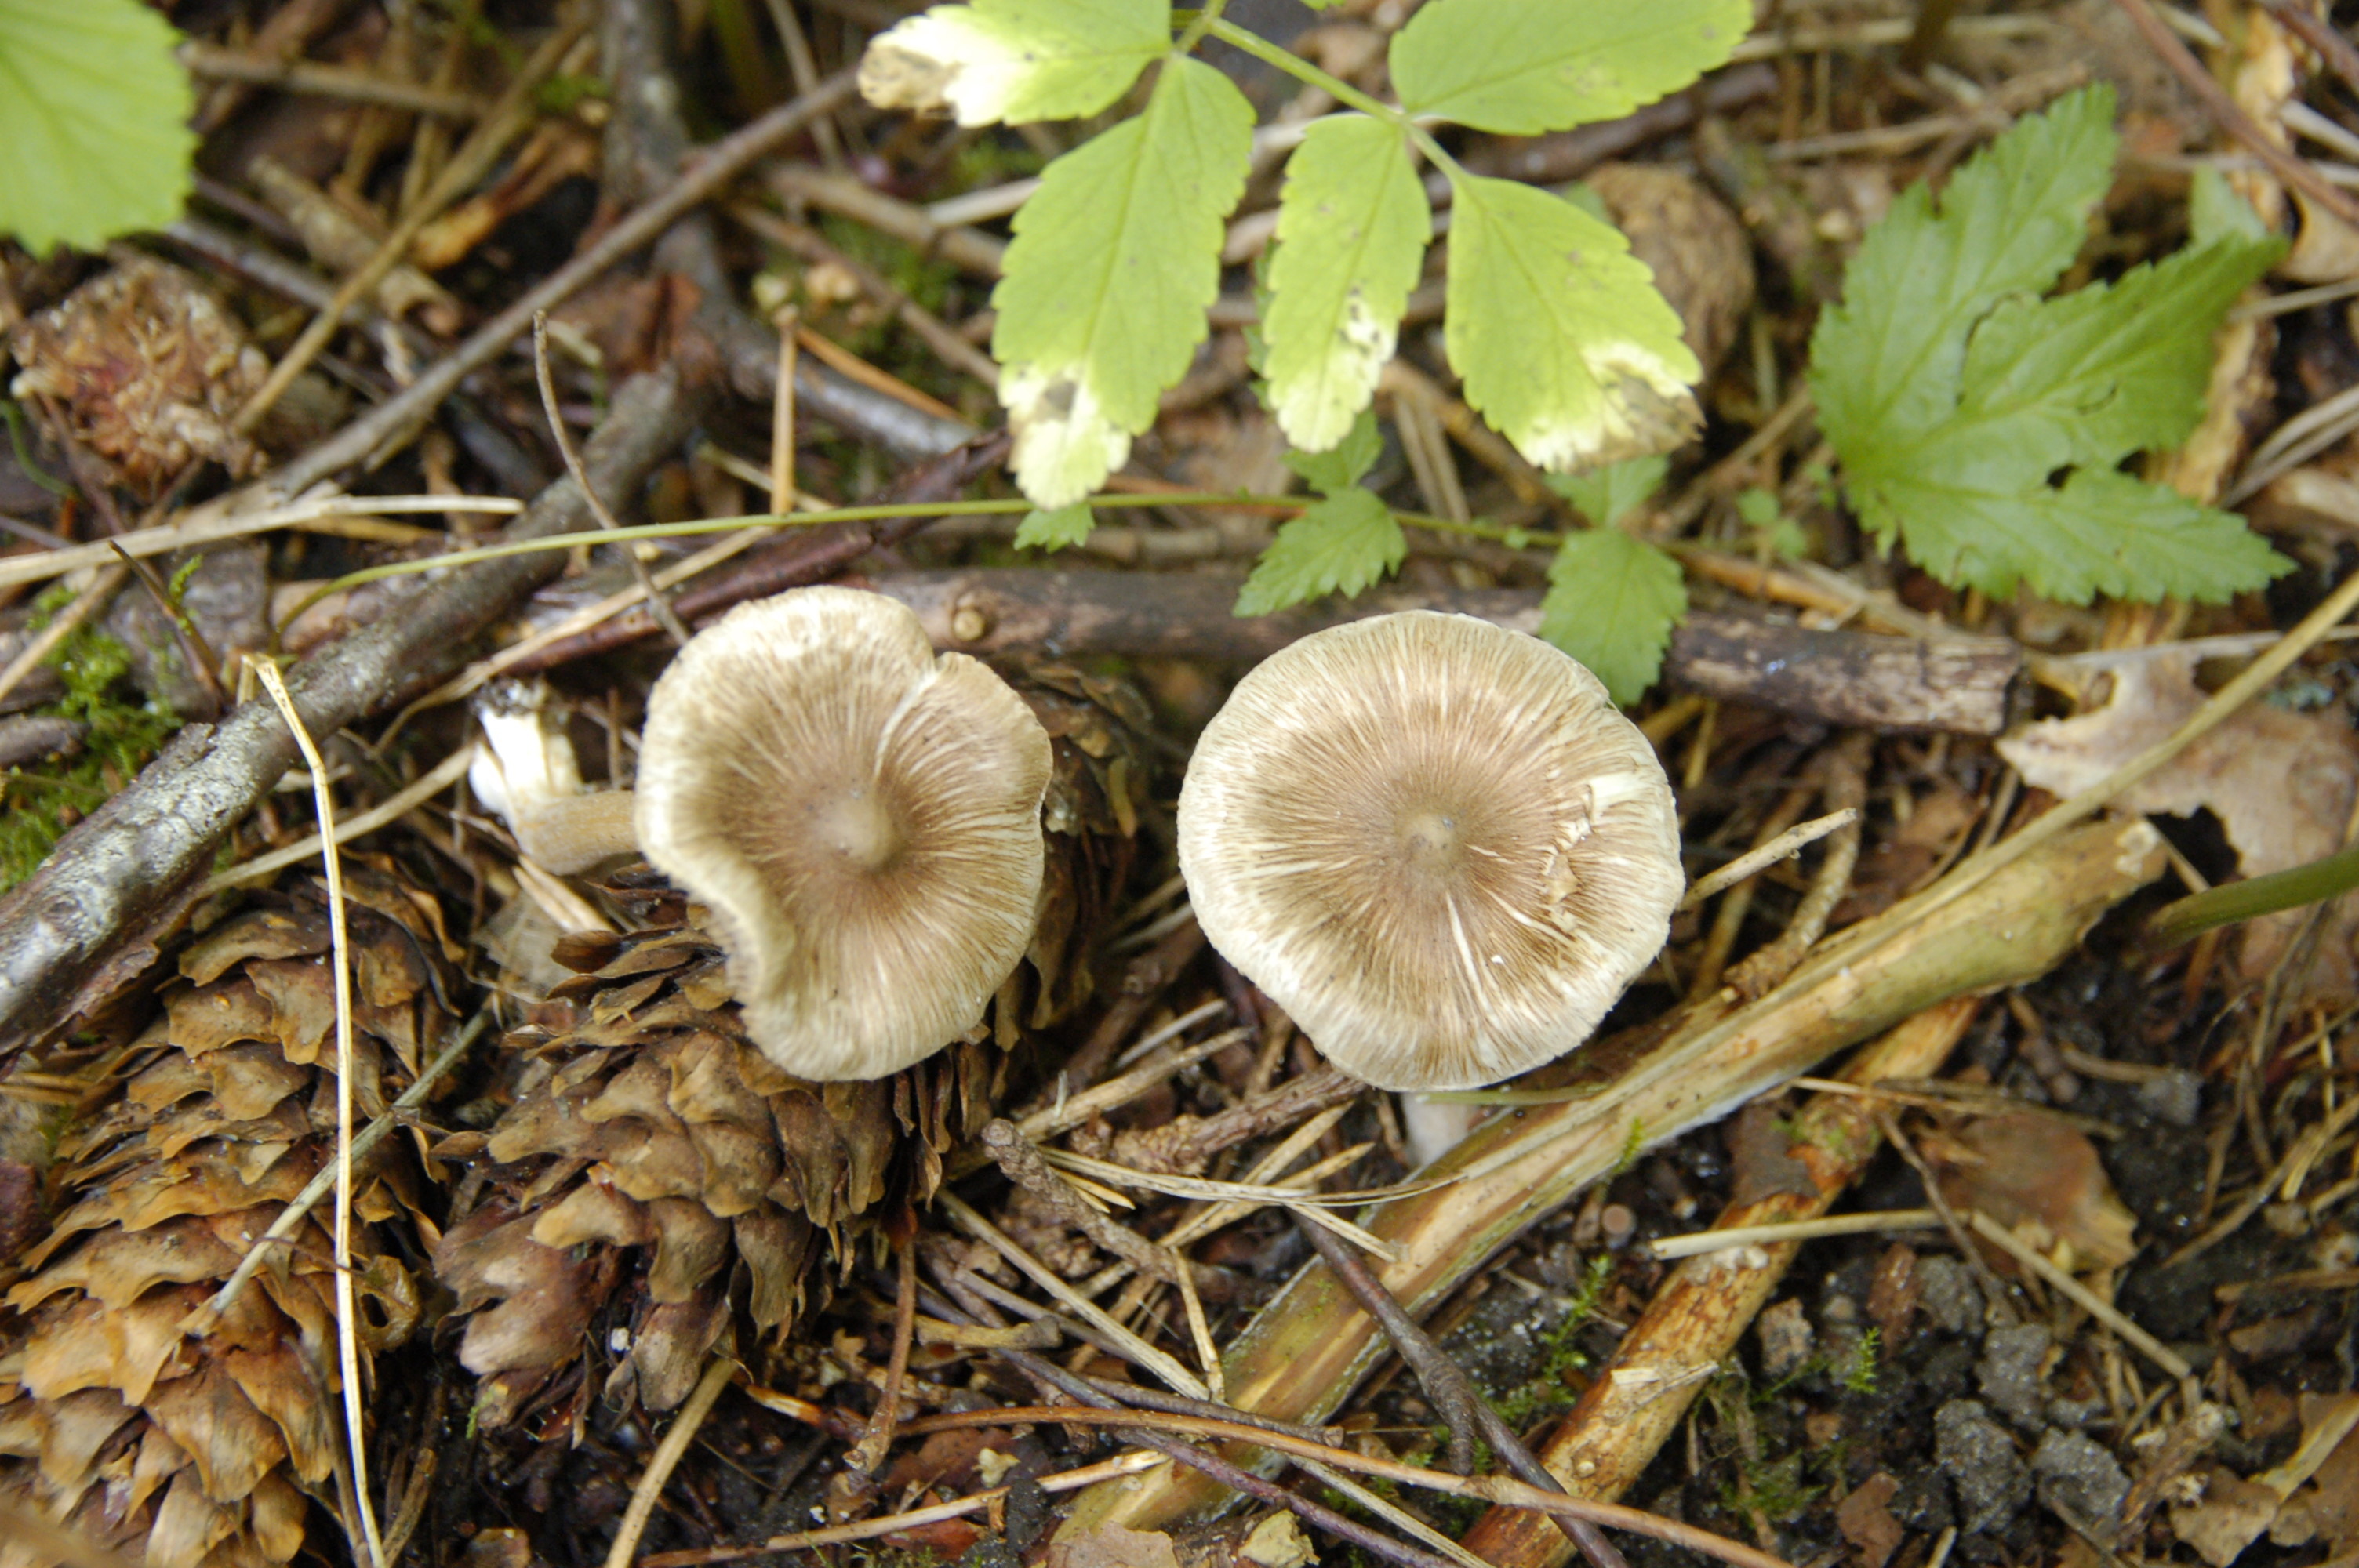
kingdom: Fungi
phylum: Basidiomycota
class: Agaricomycetes
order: Agaricales
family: Inocybaceae
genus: Inocybe
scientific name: Inocybe
